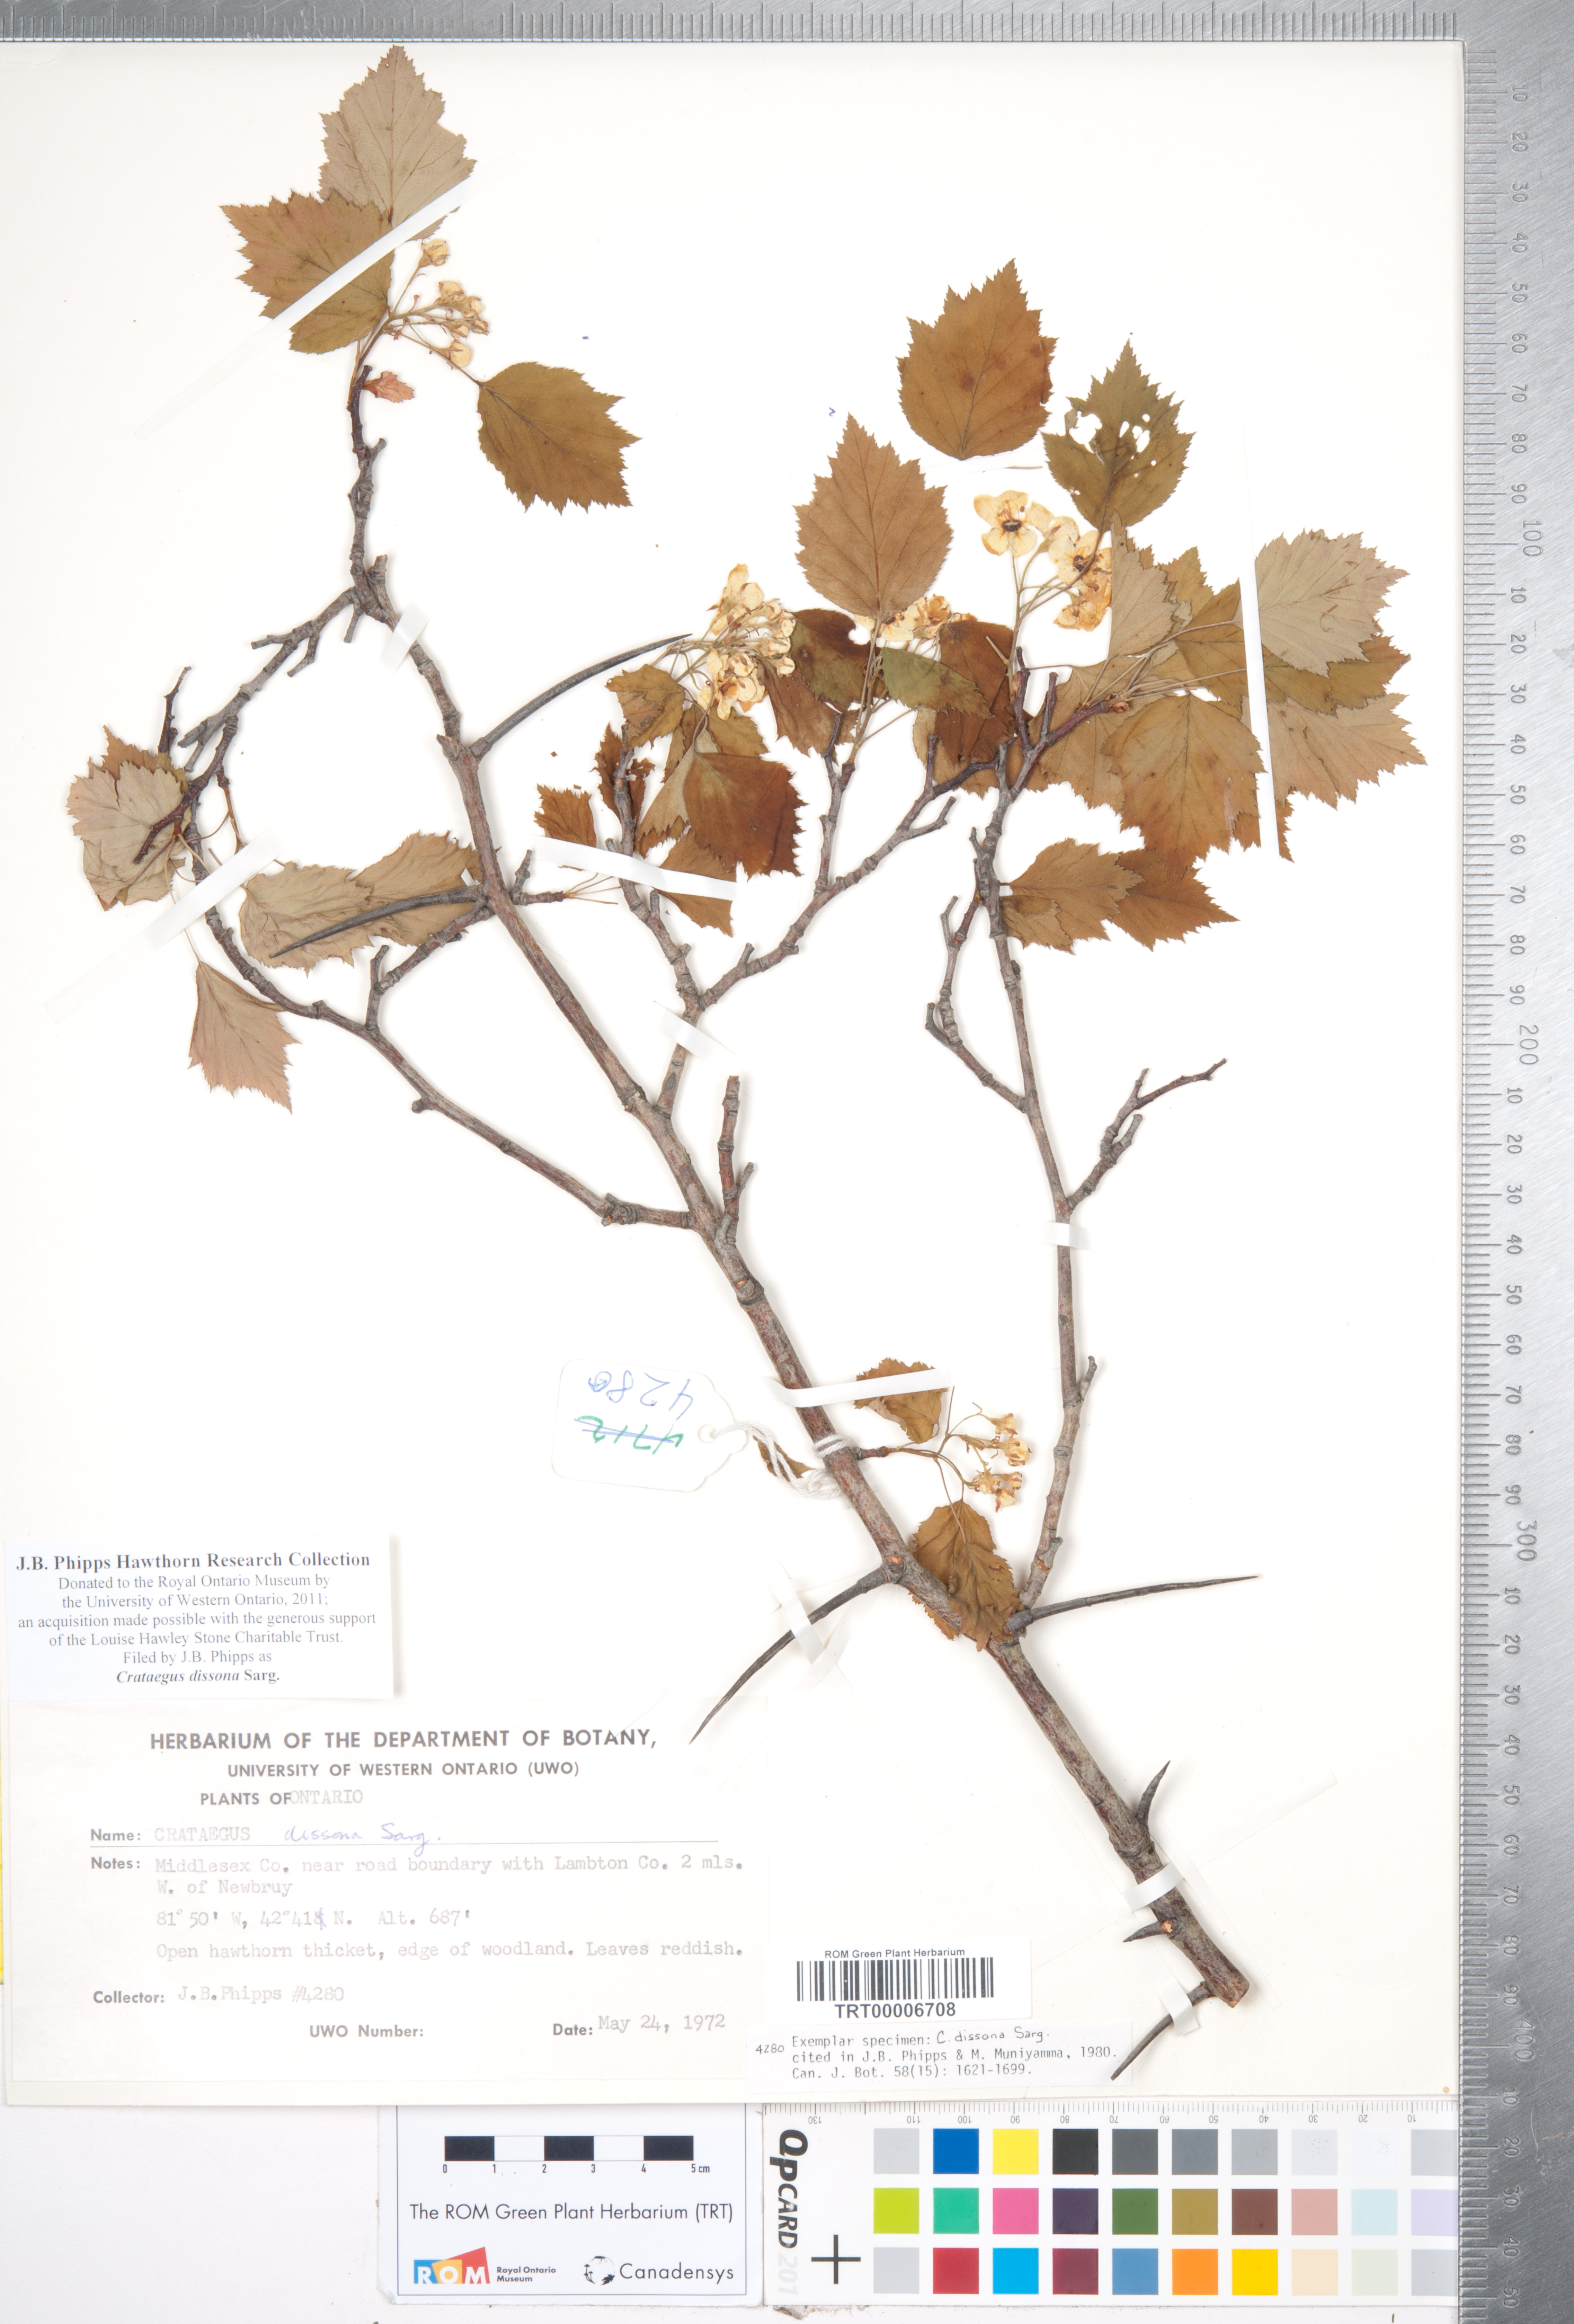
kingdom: Plantae
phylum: Tracheophyta
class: Magnoliopsida
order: Rosales
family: Rosaceae
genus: Crataegus
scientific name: Crataegus pruinosa
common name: Waxy-fruit hawthorn
